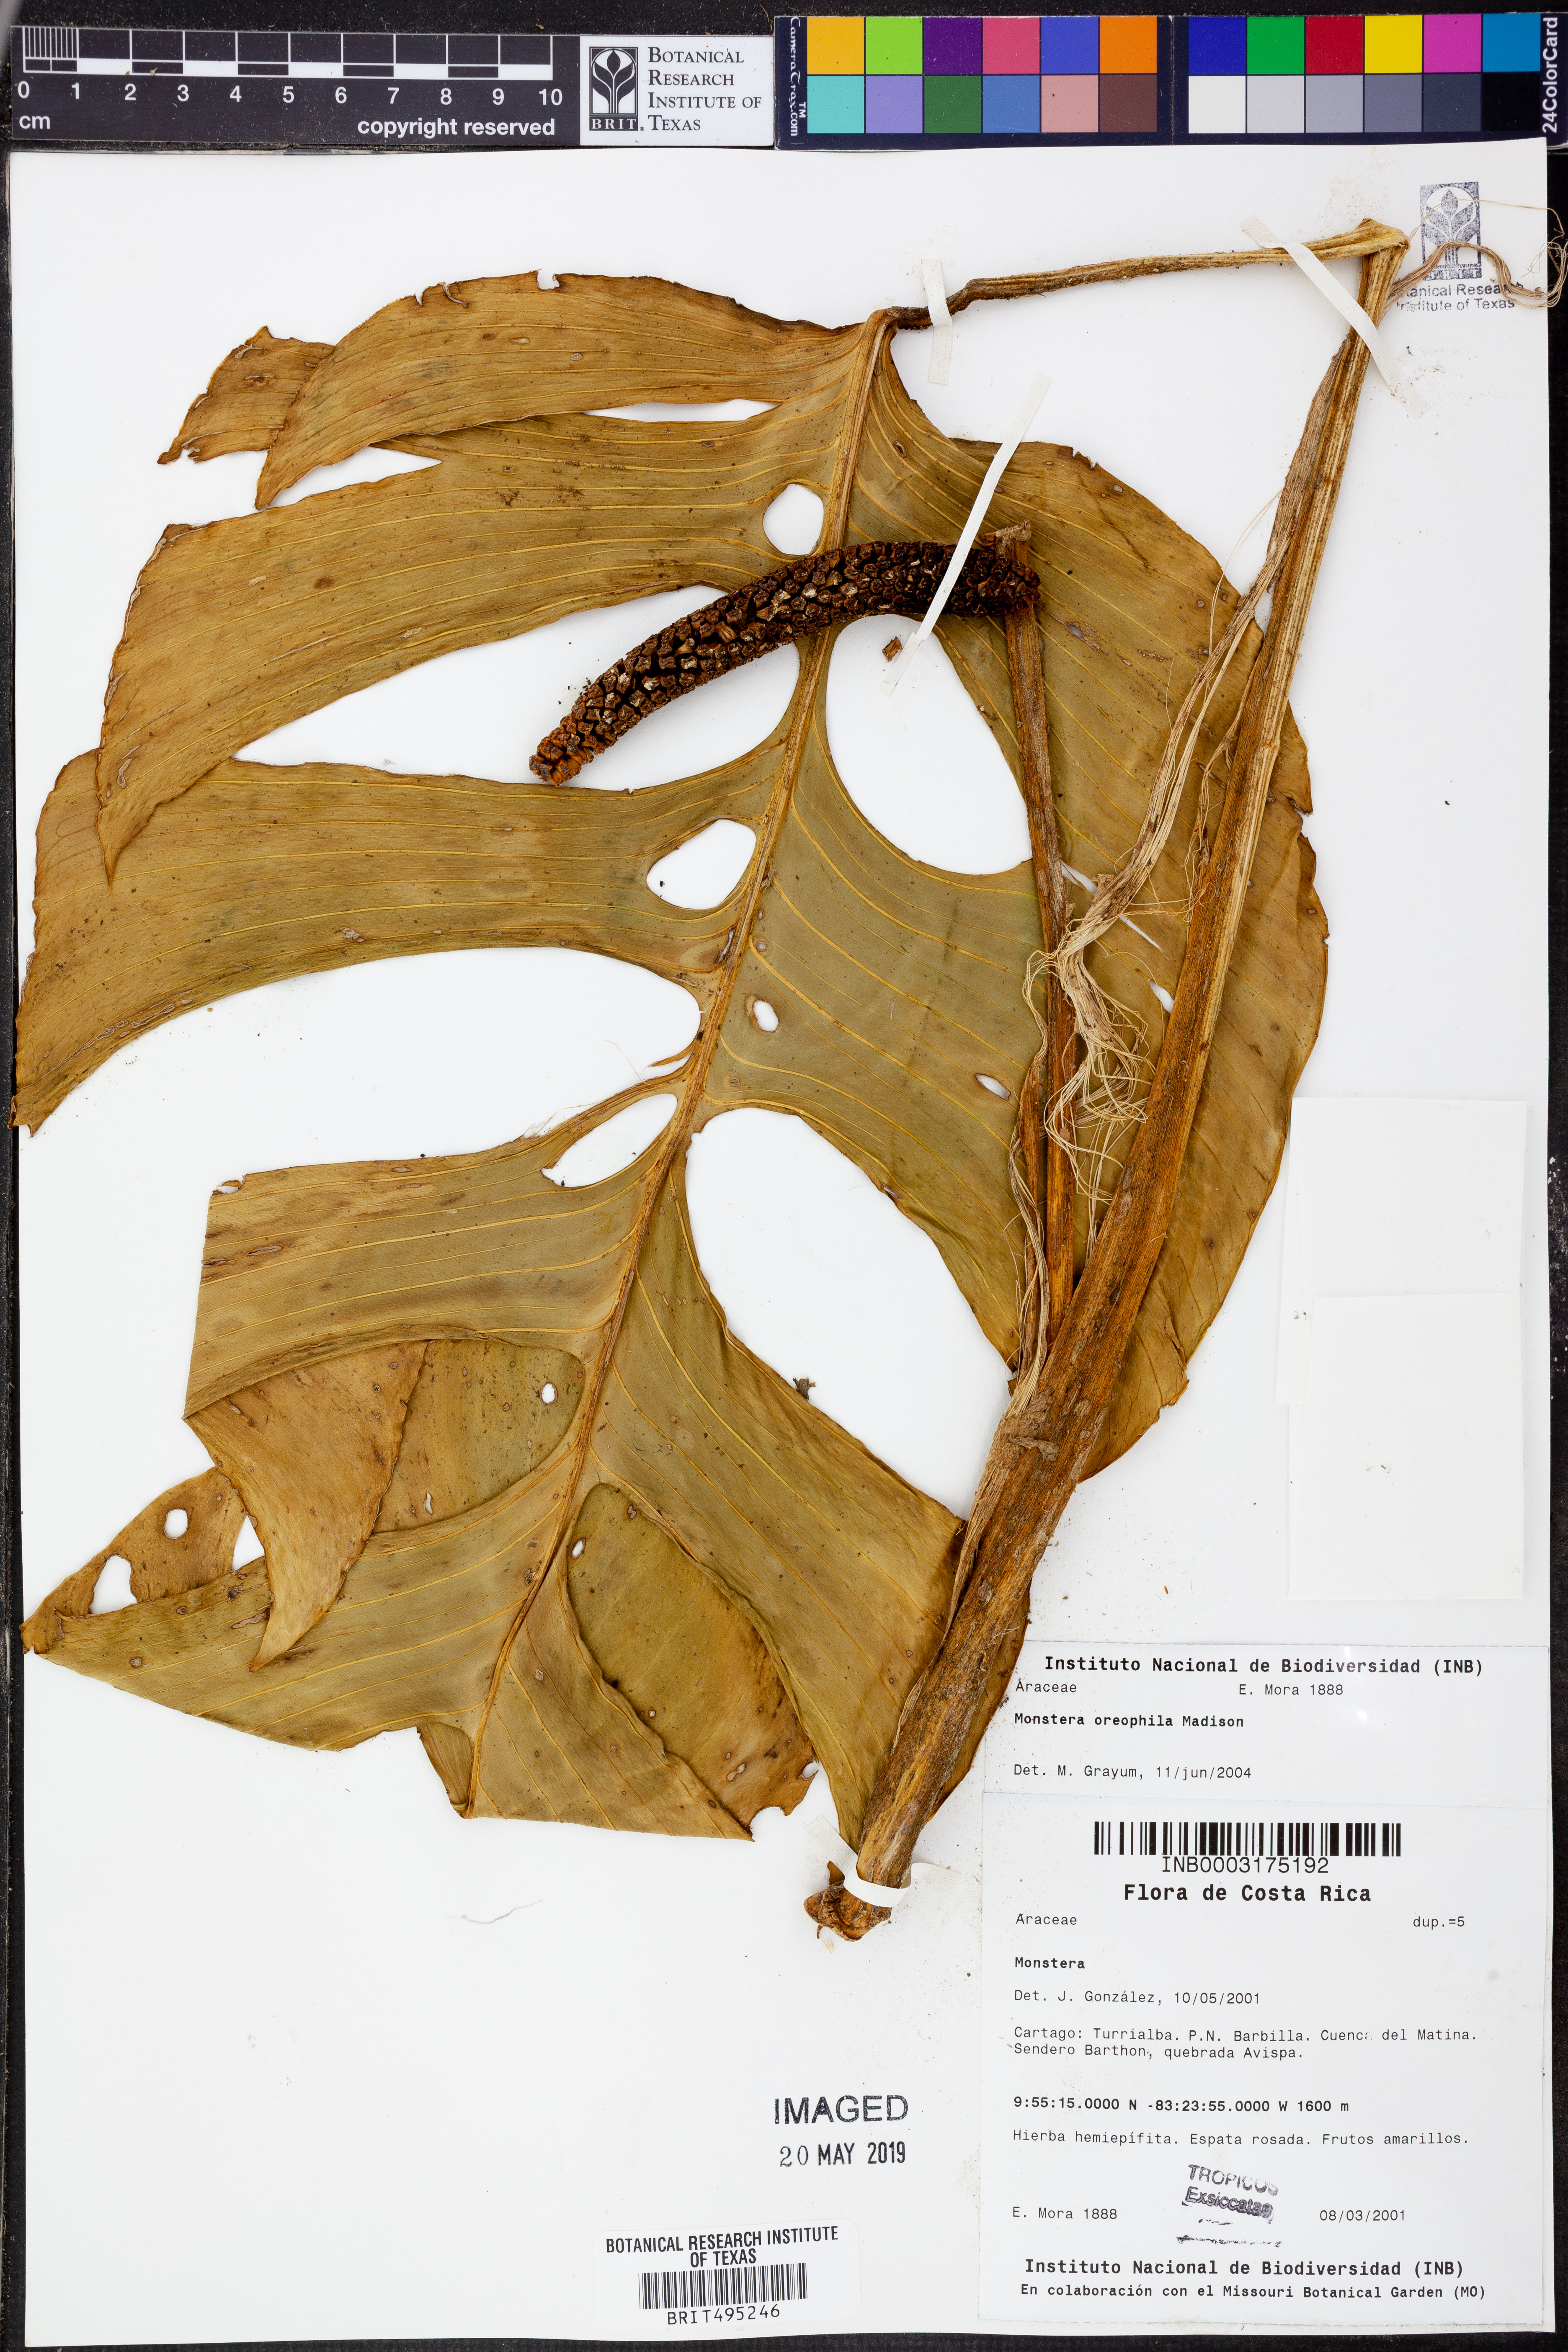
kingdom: Plantae
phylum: Tracheophyta
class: Liliopsida
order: Alismatales
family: Araceae
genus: Monstera
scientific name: Monstera oreophila
